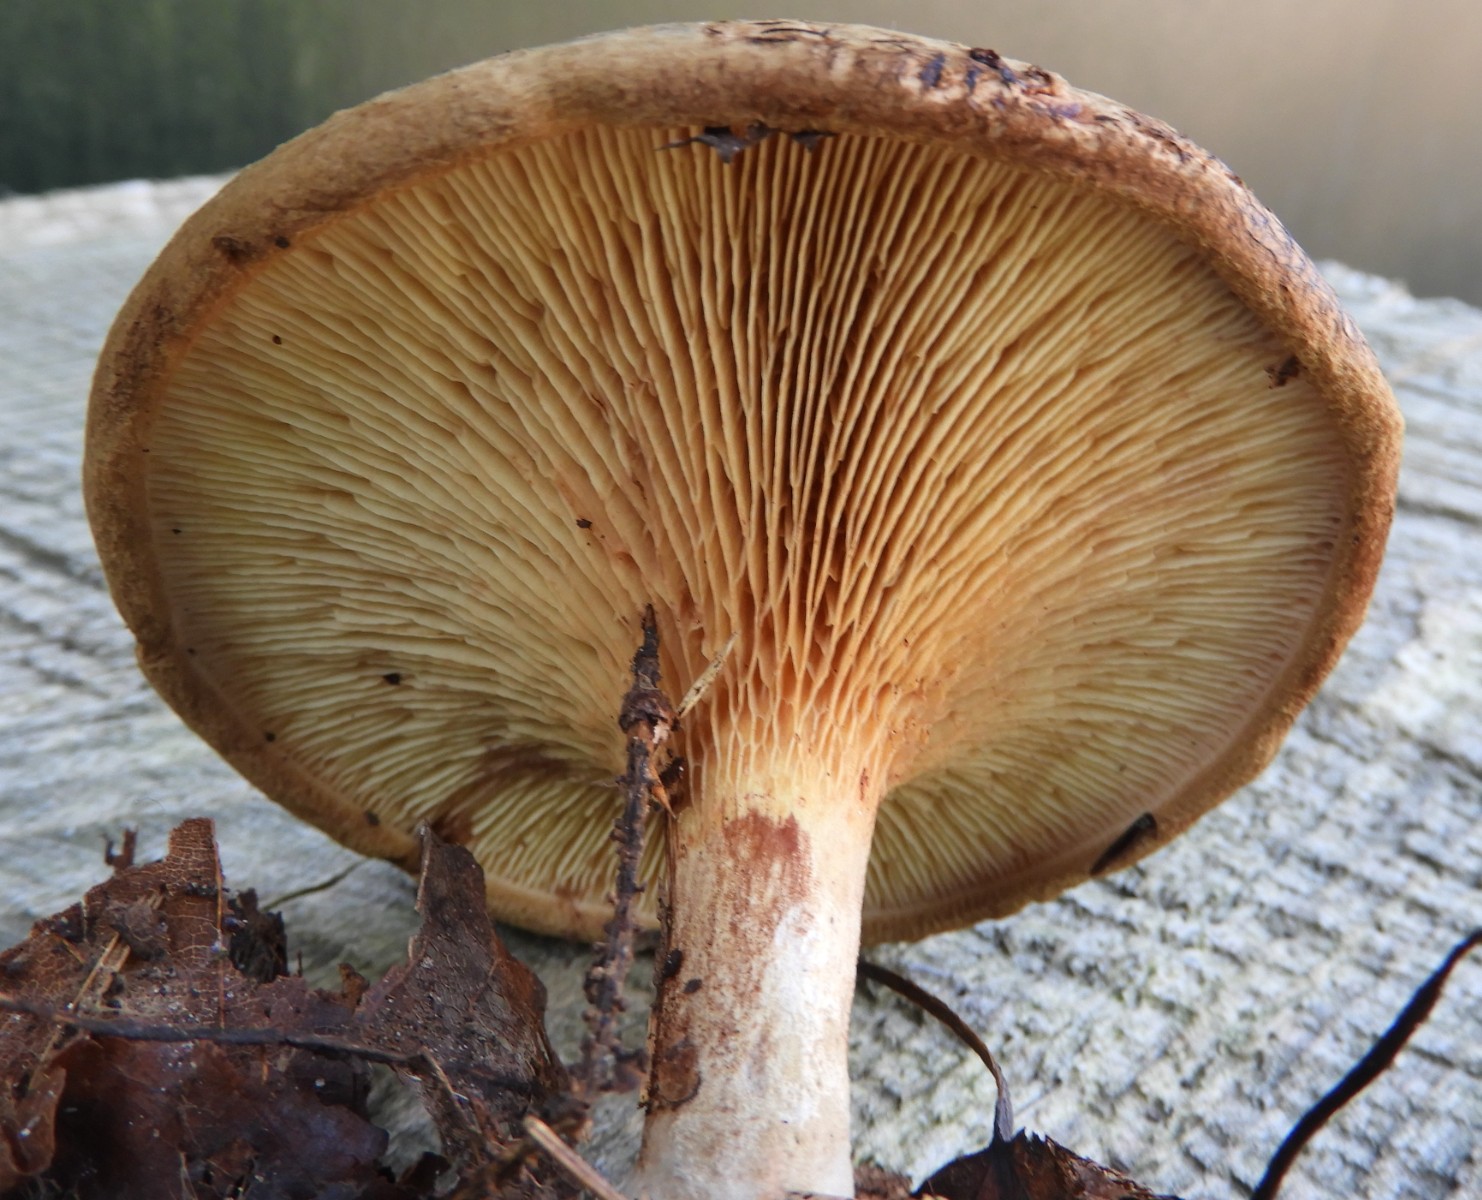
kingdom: Fungi
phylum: Basidiomycota
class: Agaricomycetes
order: Boletales
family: Paxillaceae
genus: Paxillus
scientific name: Paxillus
